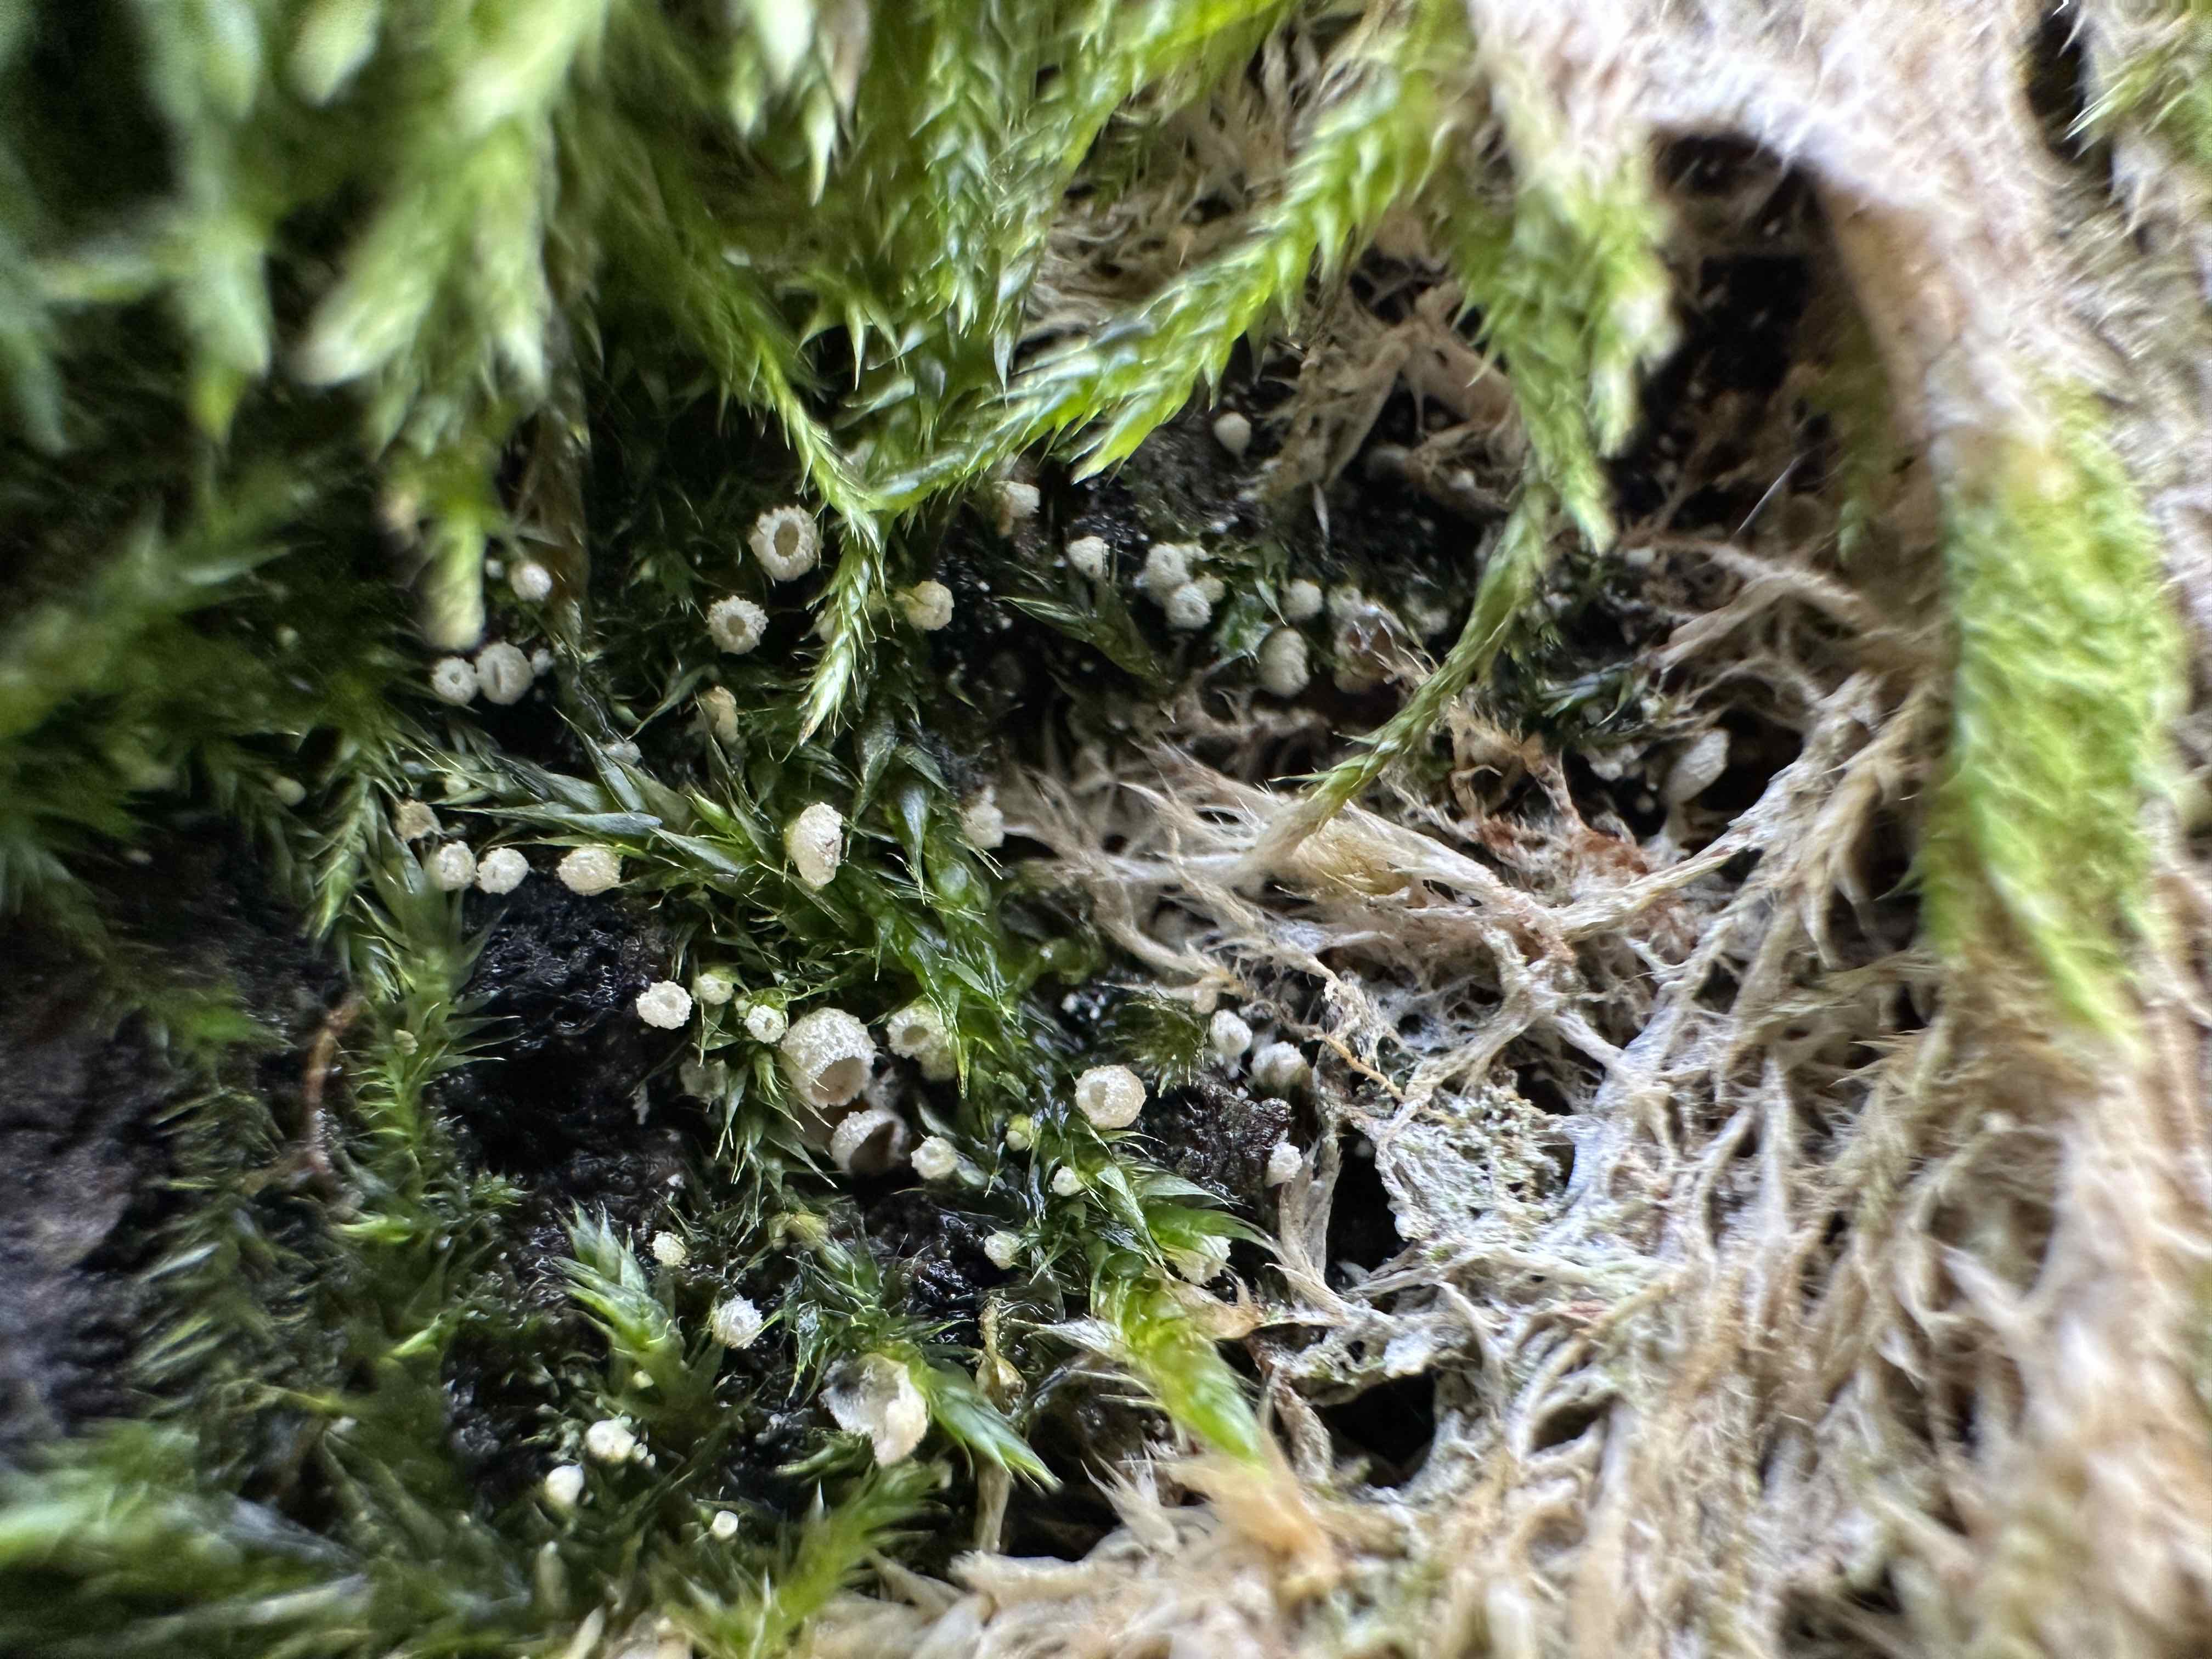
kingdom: Fungi
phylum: Basidiomycota
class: Agaricomycetes
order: Agaricales
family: Chromocyphellaceae
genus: Chromocyphella
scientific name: Chromocyphella muscicola
